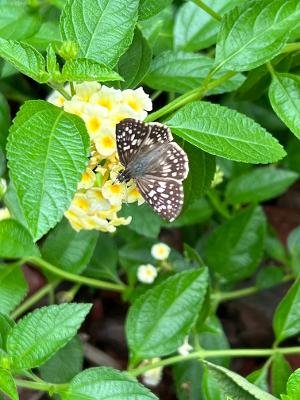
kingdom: Animalia
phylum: Arthropoda
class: Insecta
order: Lepidoptera
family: Hesperiidae
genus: Pyrgus
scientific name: Pyrgus oileus
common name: Tropical Checkered-Skipper
